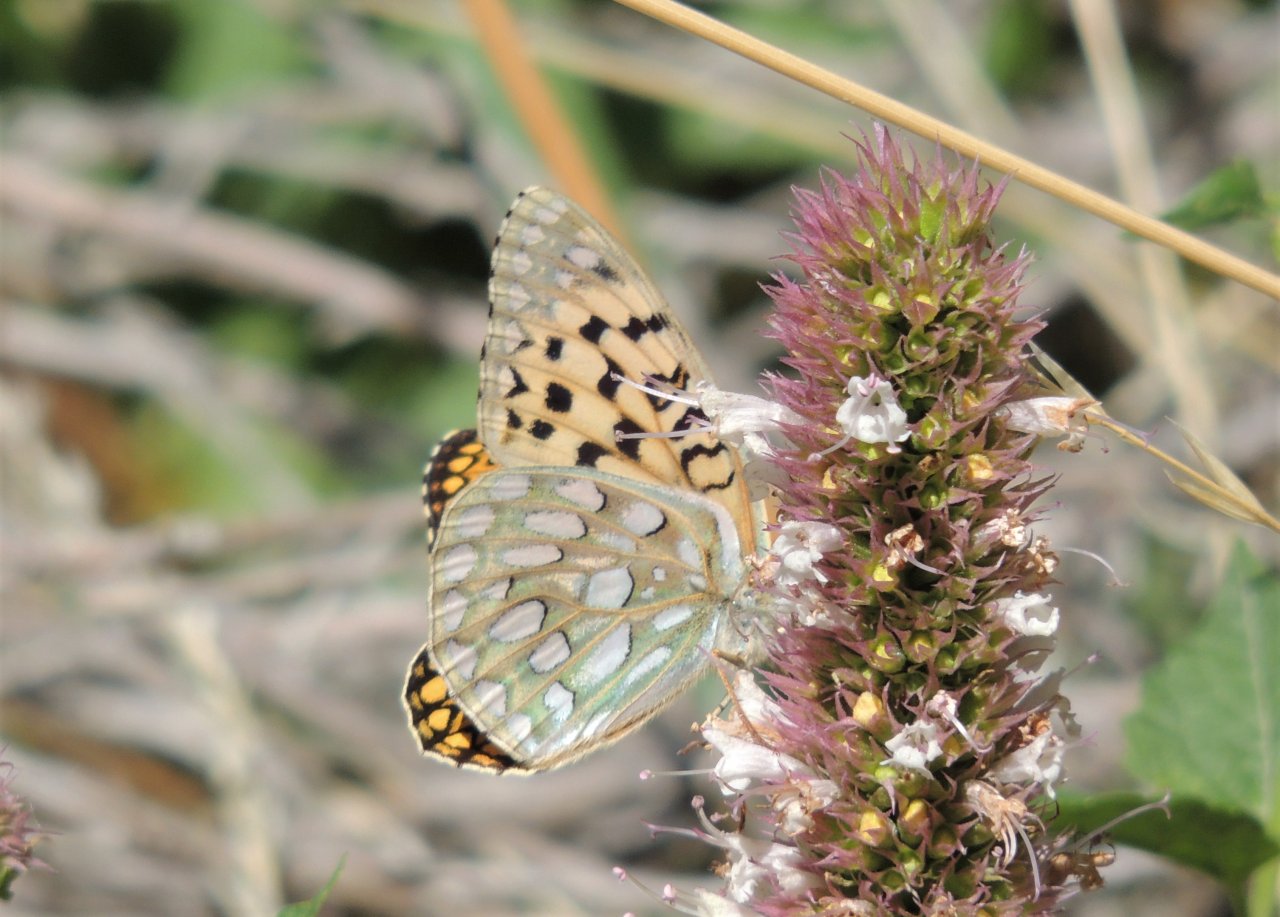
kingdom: Animalia
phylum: Arthropoda
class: Insecta
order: Lepidoptera
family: Nymphalidae
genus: Speyeria
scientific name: Speyeria callippe
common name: Callippe Fritillary
